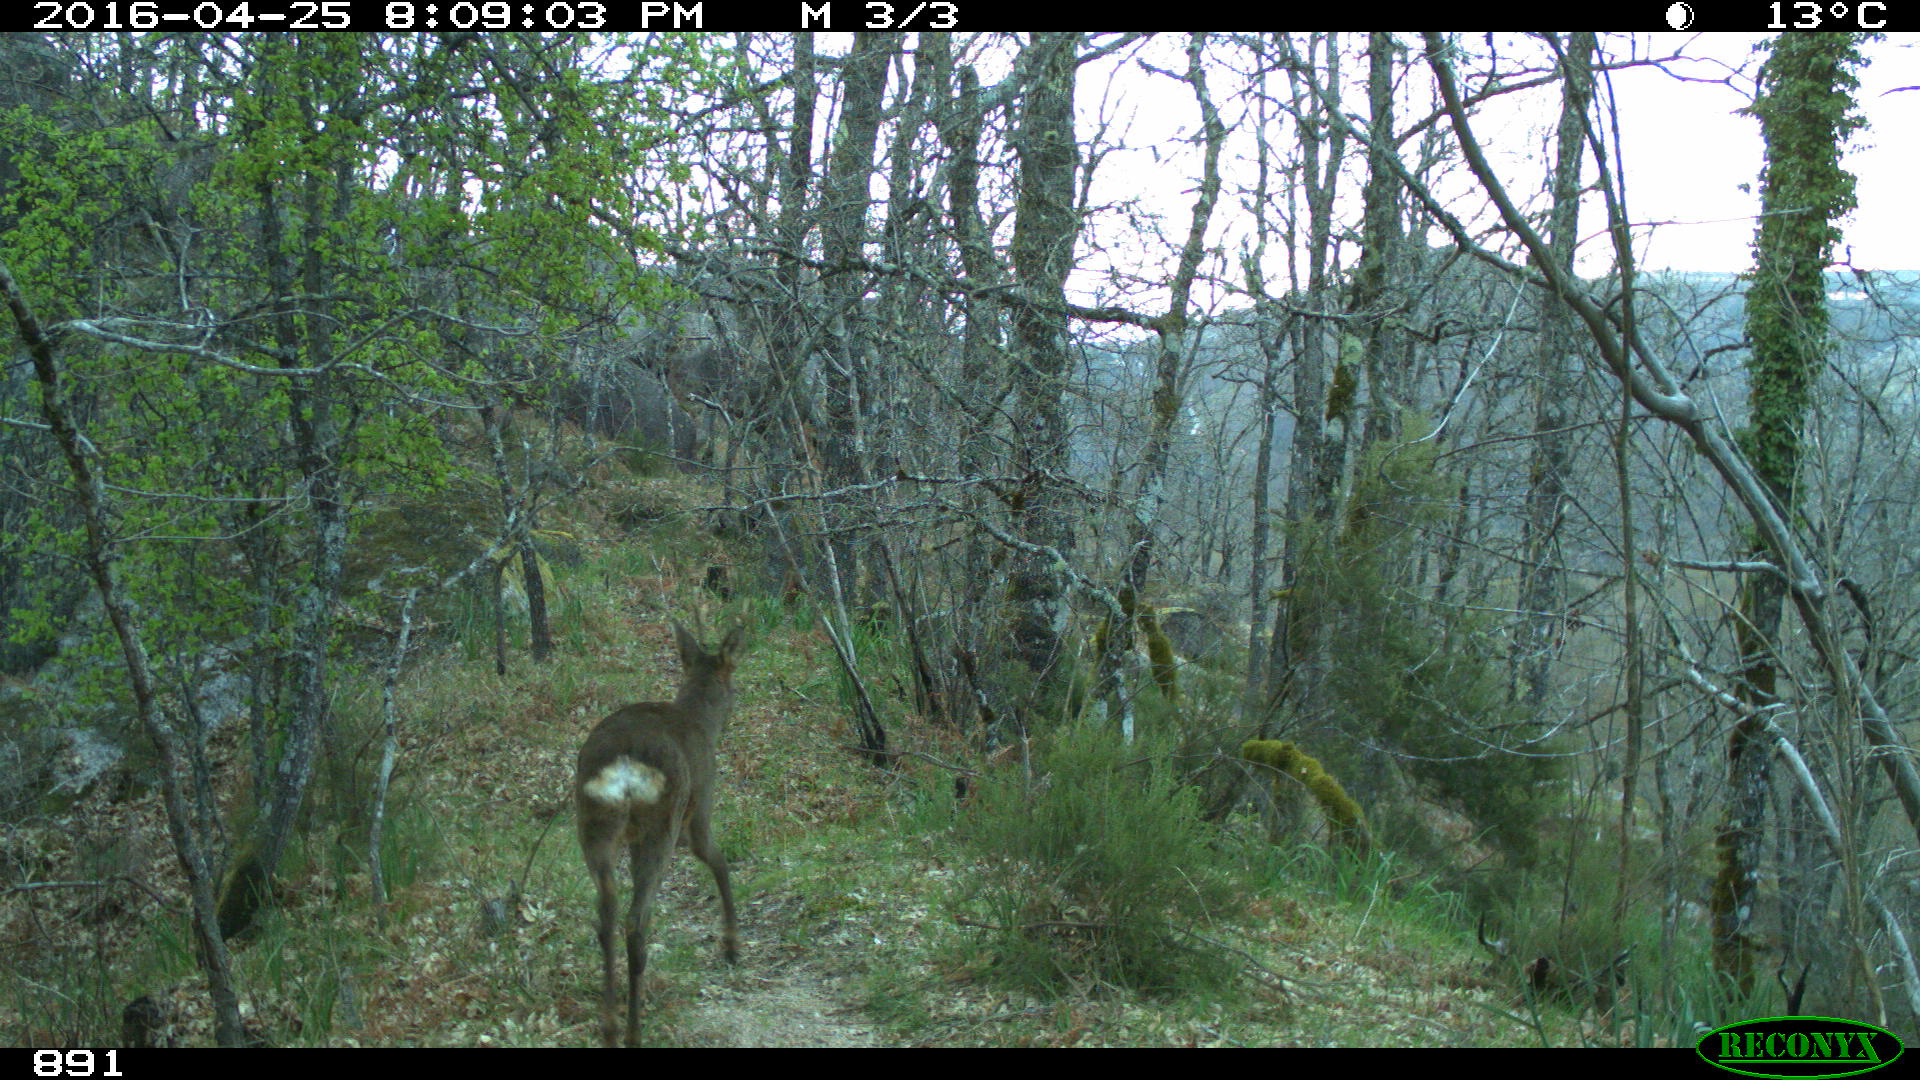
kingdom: Animalia
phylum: Chordata
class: Mammalia
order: Artiodactyla
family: Cervidae
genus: Capreolus
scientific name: Capreolus capreolus
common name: Western roe deer
